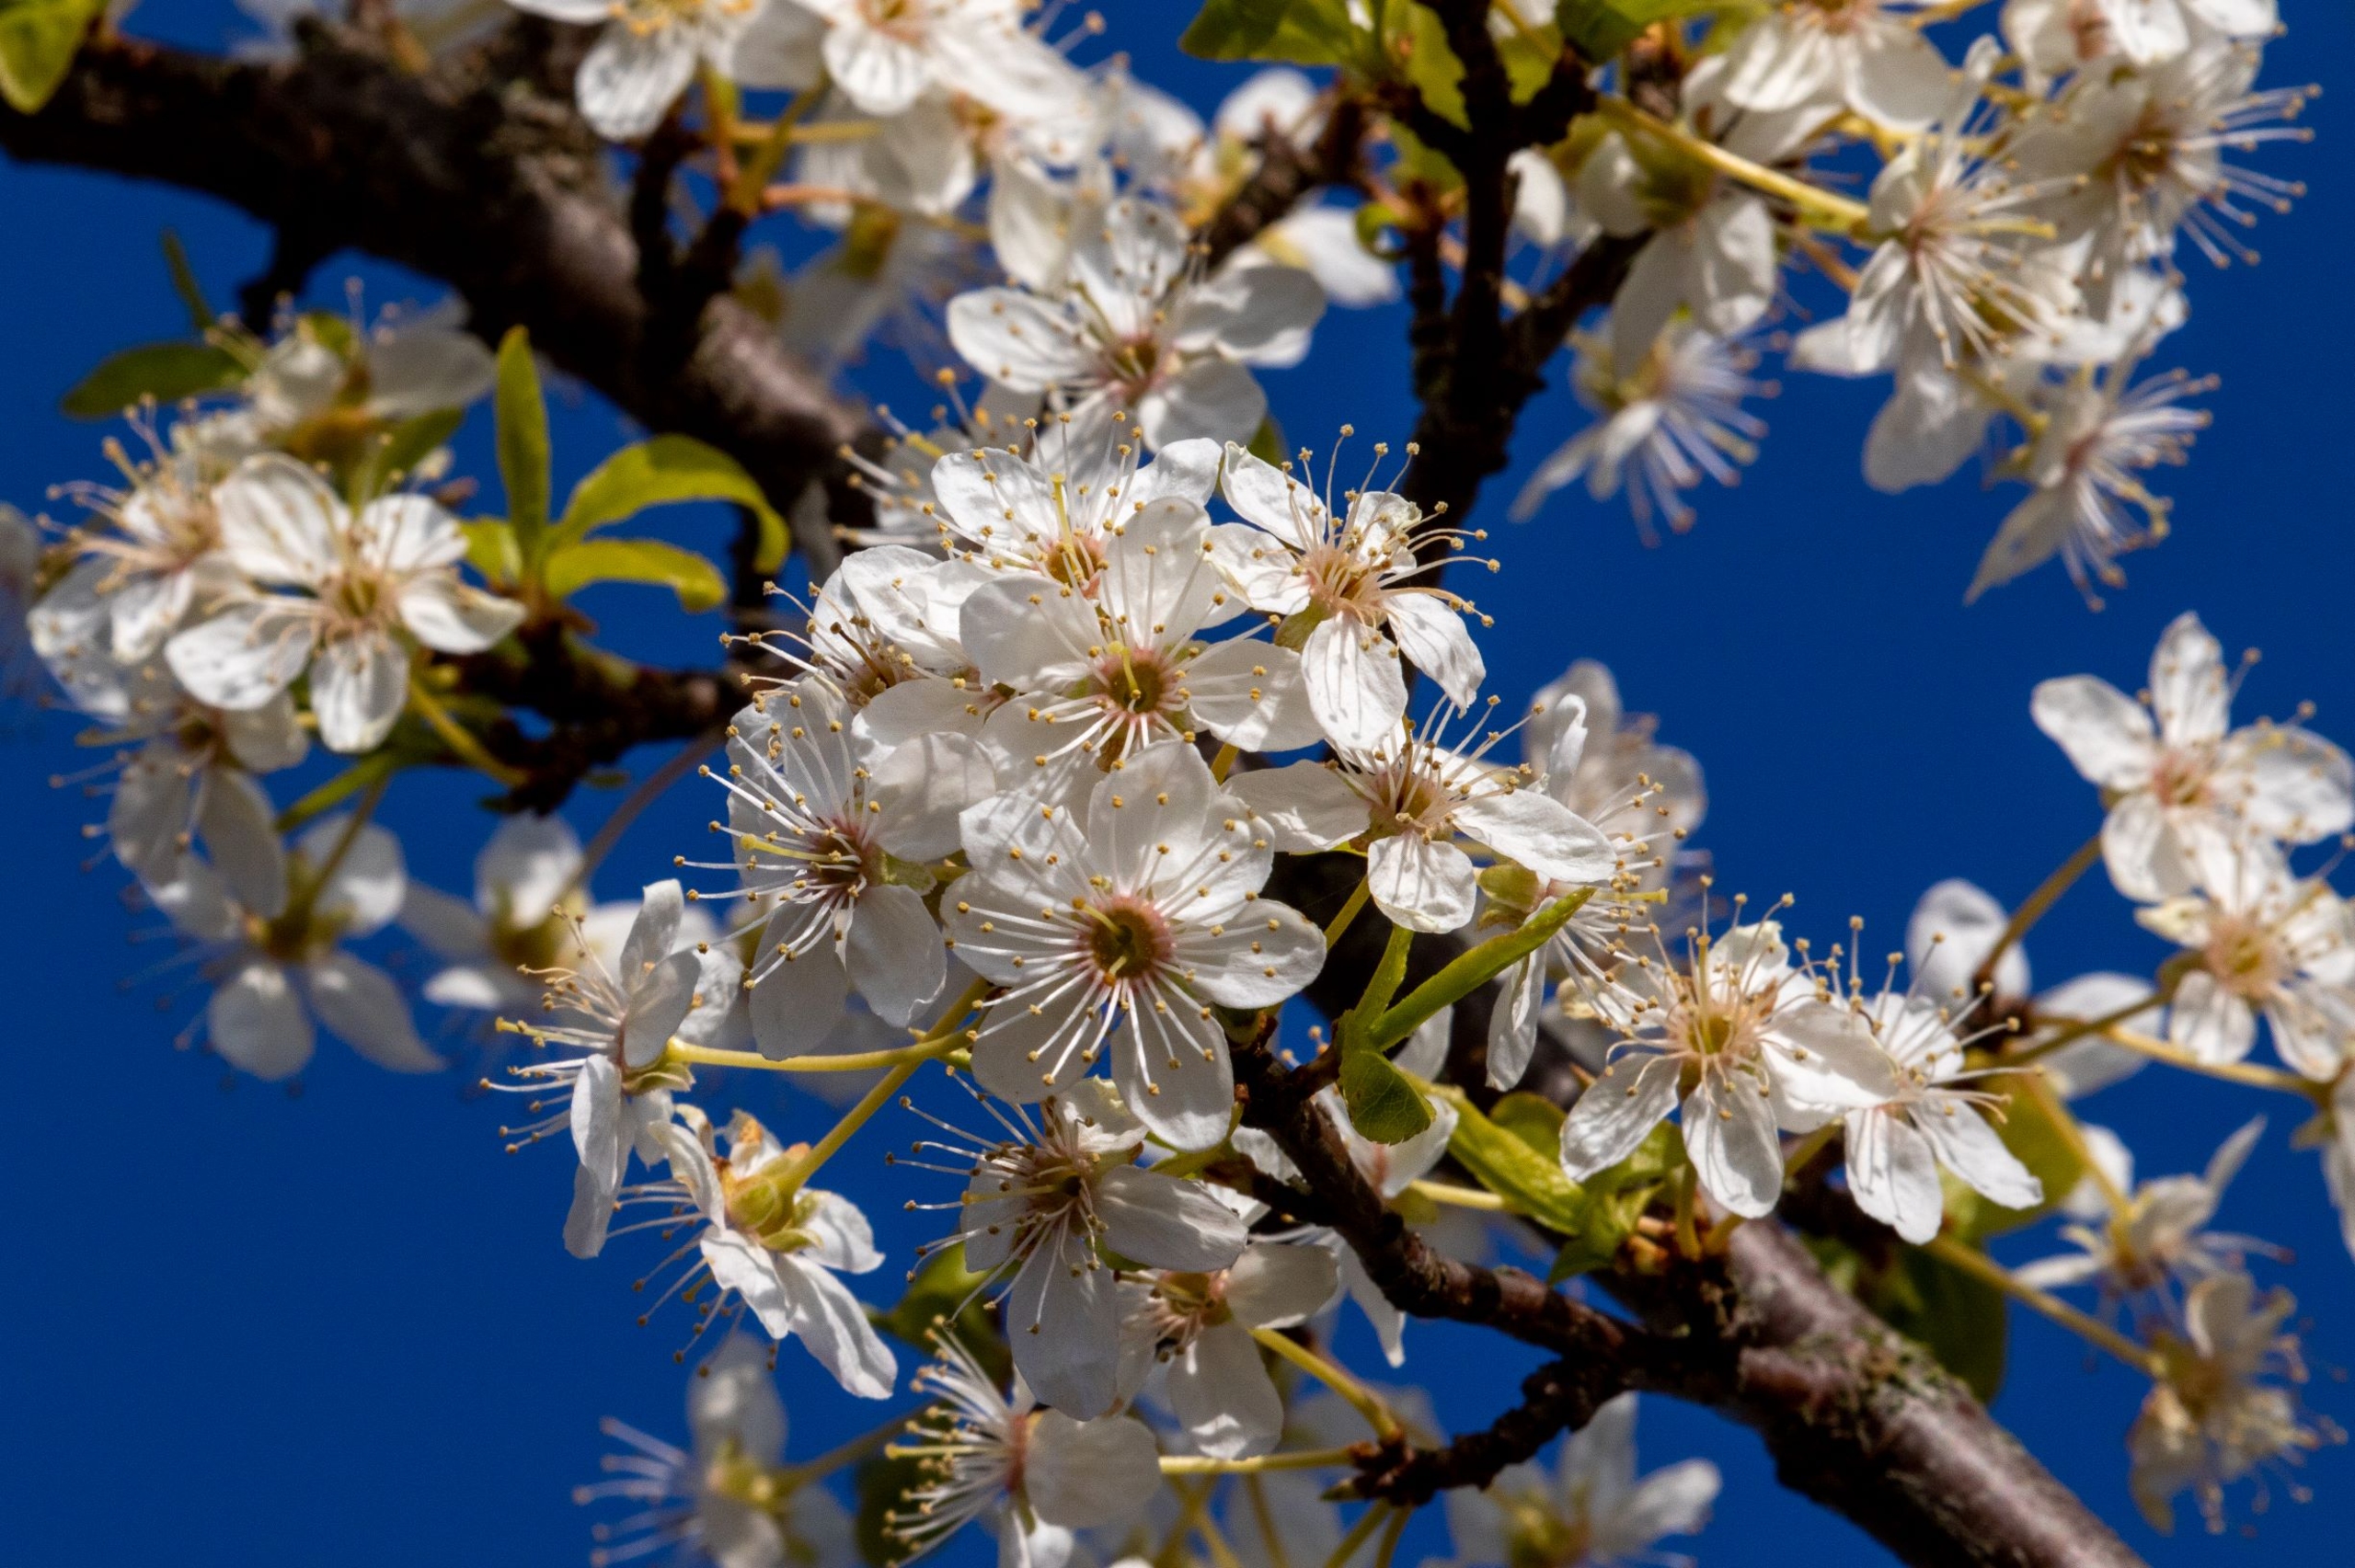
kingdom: Plantae
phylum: Tracheophyta
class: Magnoliopsida
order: Rosales
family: Rosaceae
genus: Prunus
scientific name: Prunus cerasifera
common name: Mirabel
